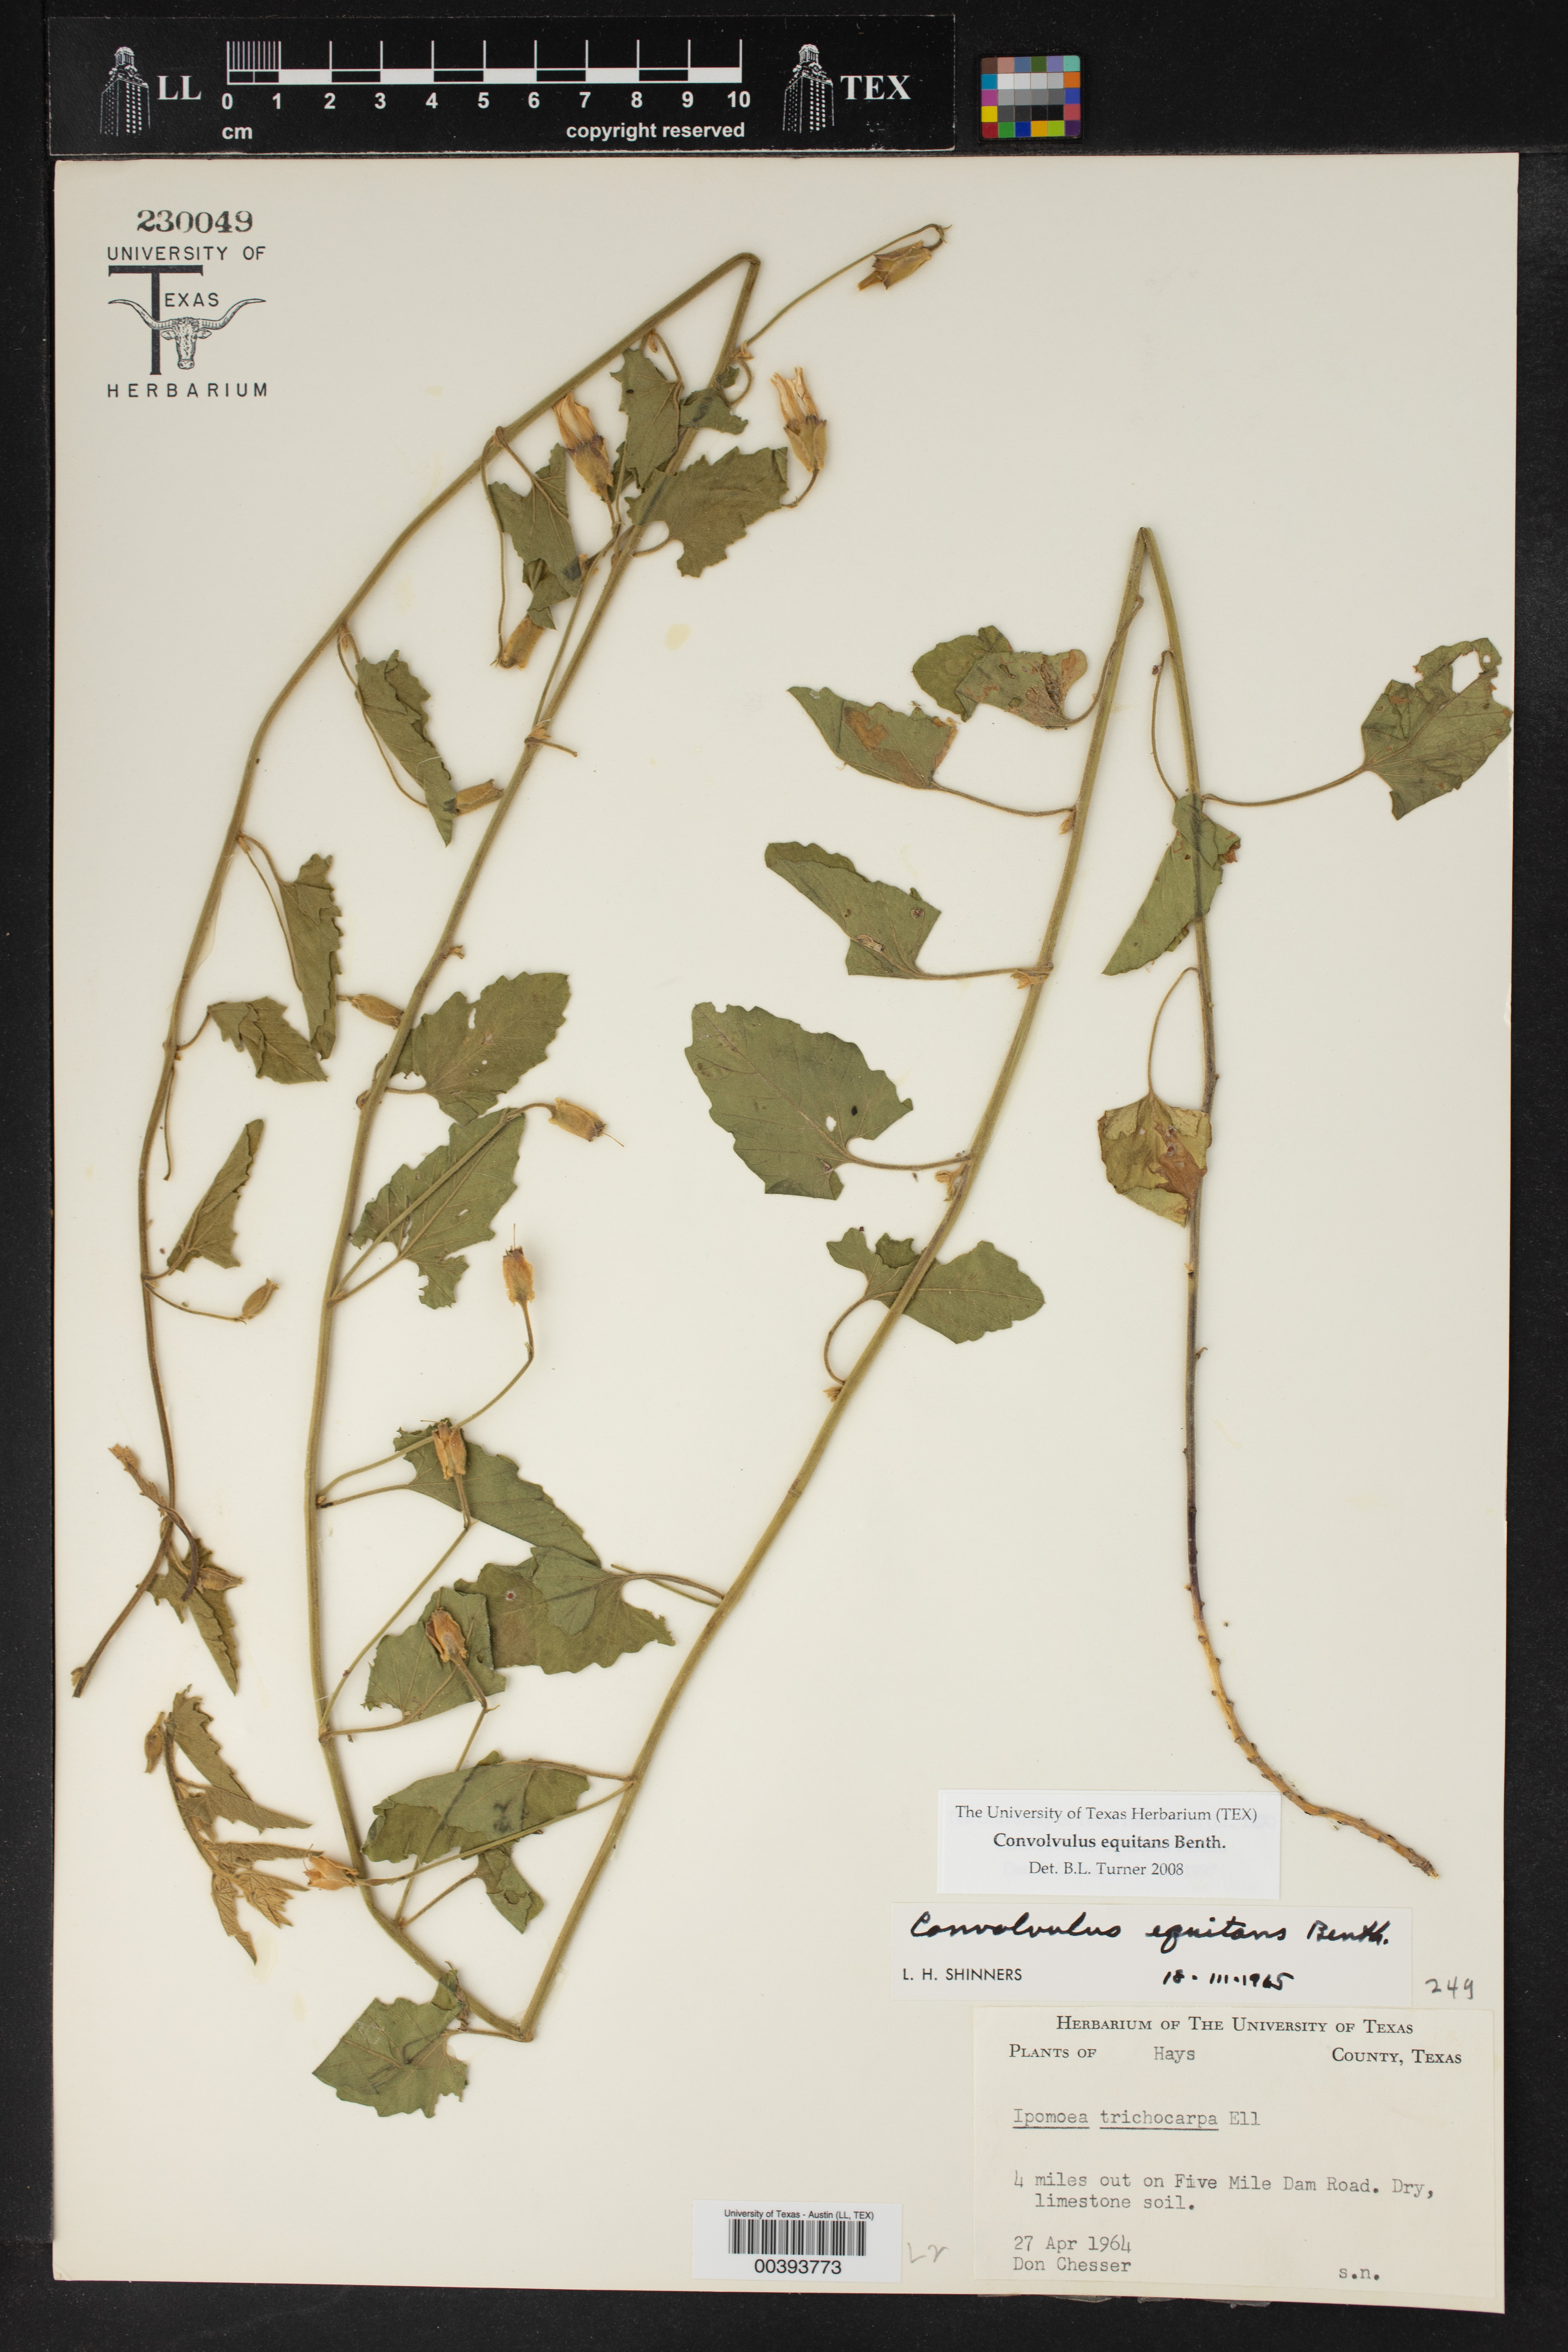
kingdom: Plantae
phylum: Tracheophyta
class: Magnoliopsida
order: Solanales
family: Convolvulaceae
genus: Convolvulus
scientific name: Convolvulus equitans
